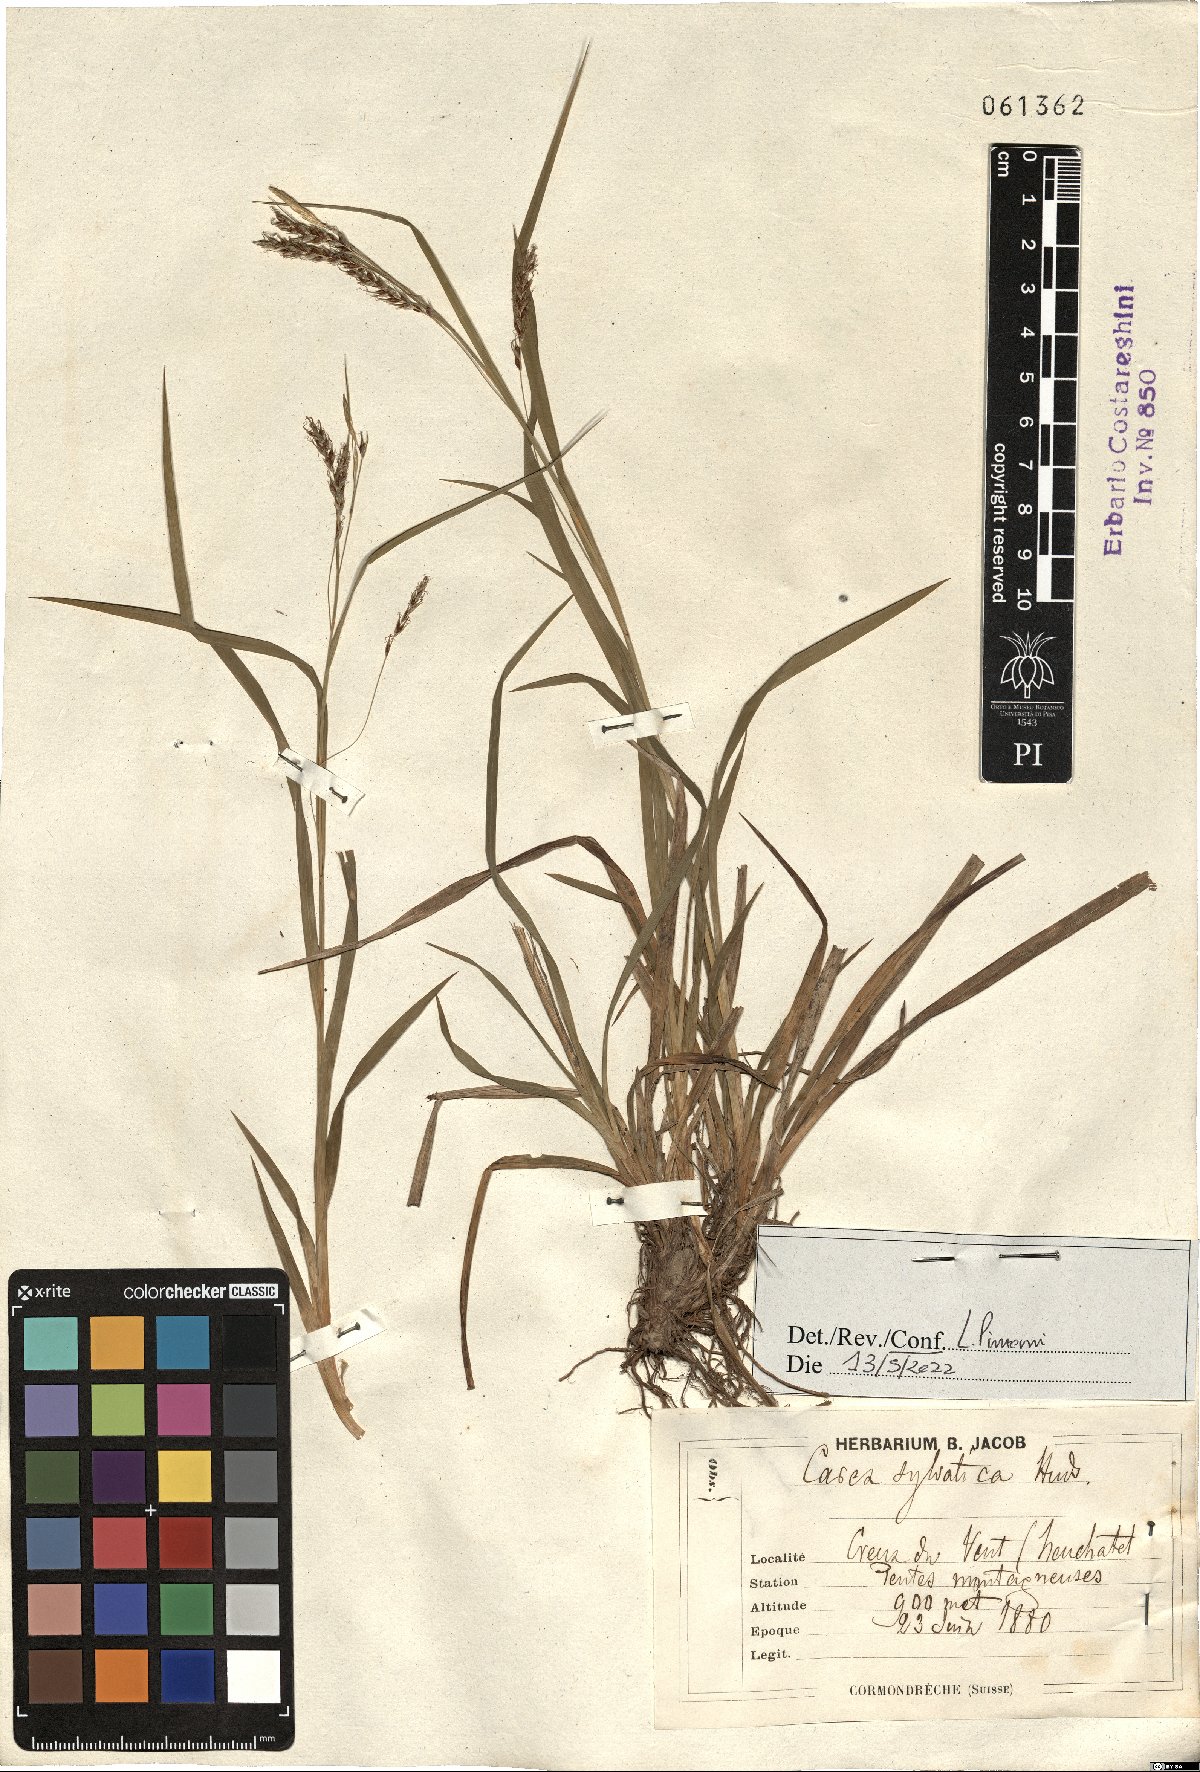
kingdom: Plantae
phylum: Tracheophyta
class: Liliopsida
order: Poales
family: Cyperaceae
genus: Carex
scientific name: Carex sylvatica
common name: Wood-sedge
